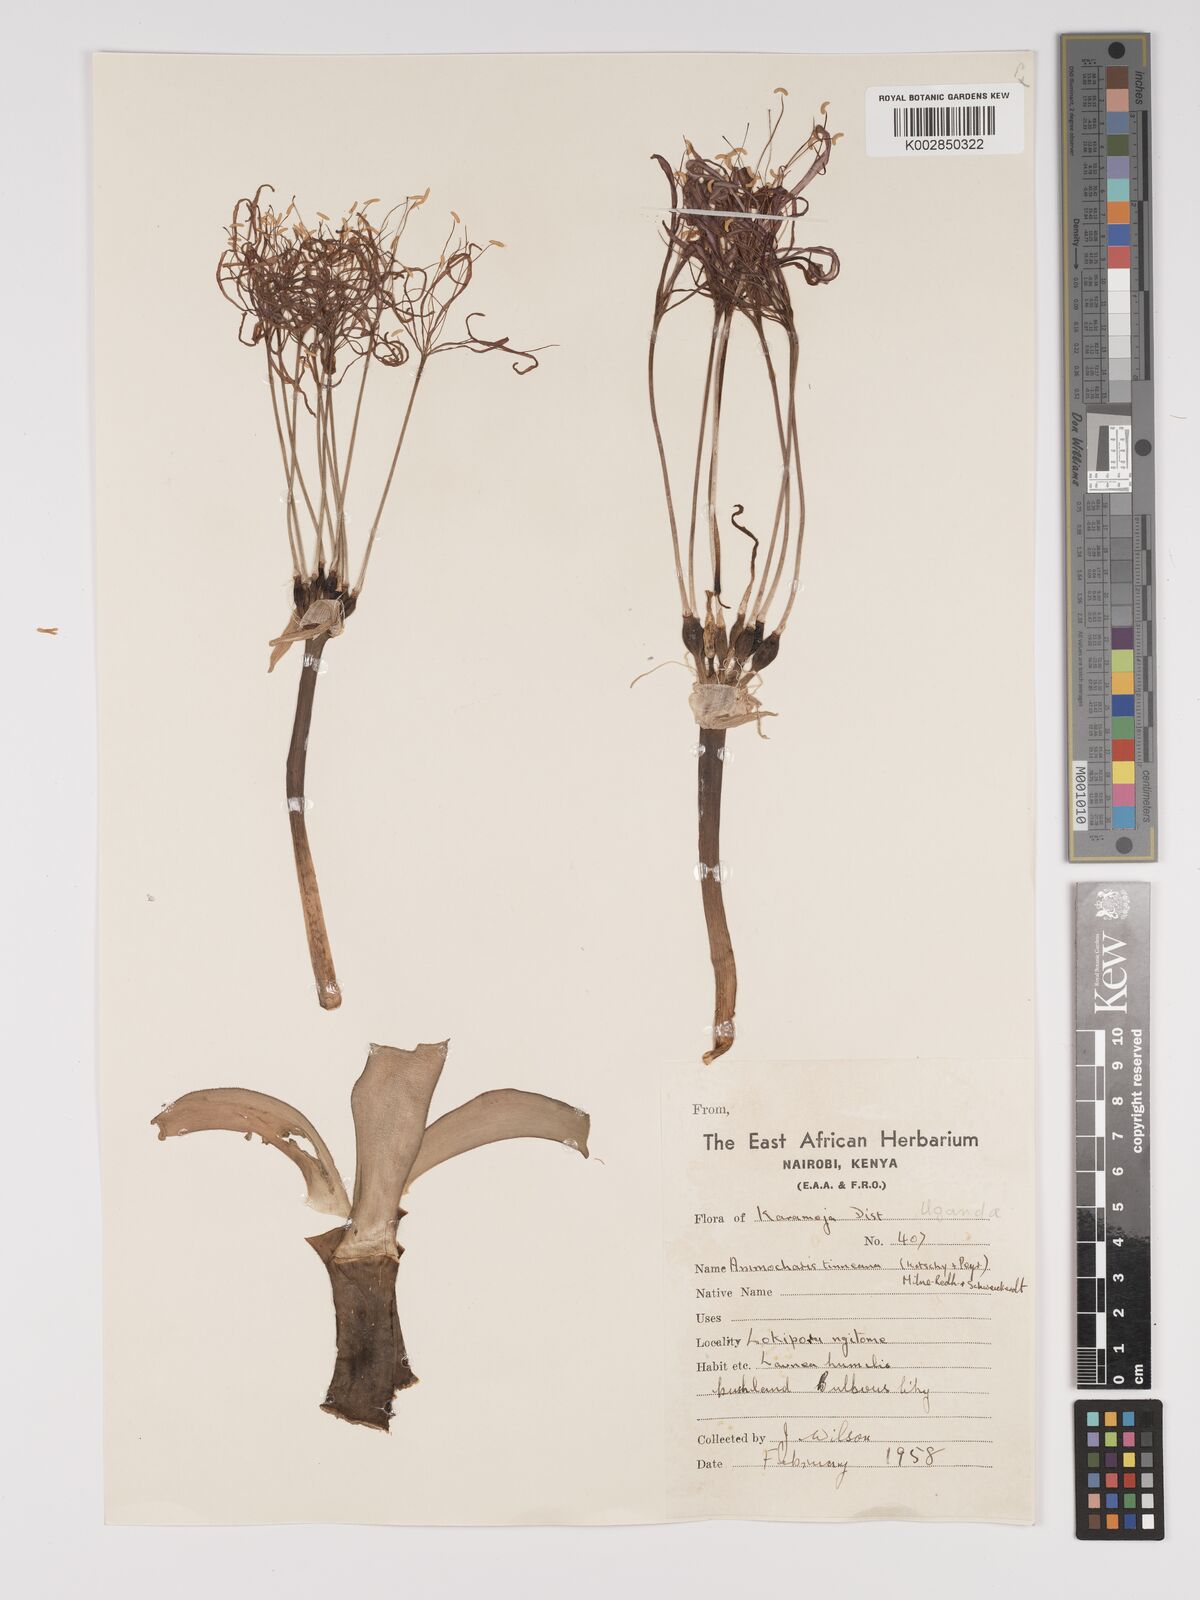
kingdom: Plantae
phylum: Tracheophyta
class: Liliopsida
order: Asparagales
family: Amaryllidaceae
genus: Ammocharis
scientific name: Ammocharis tinneana
